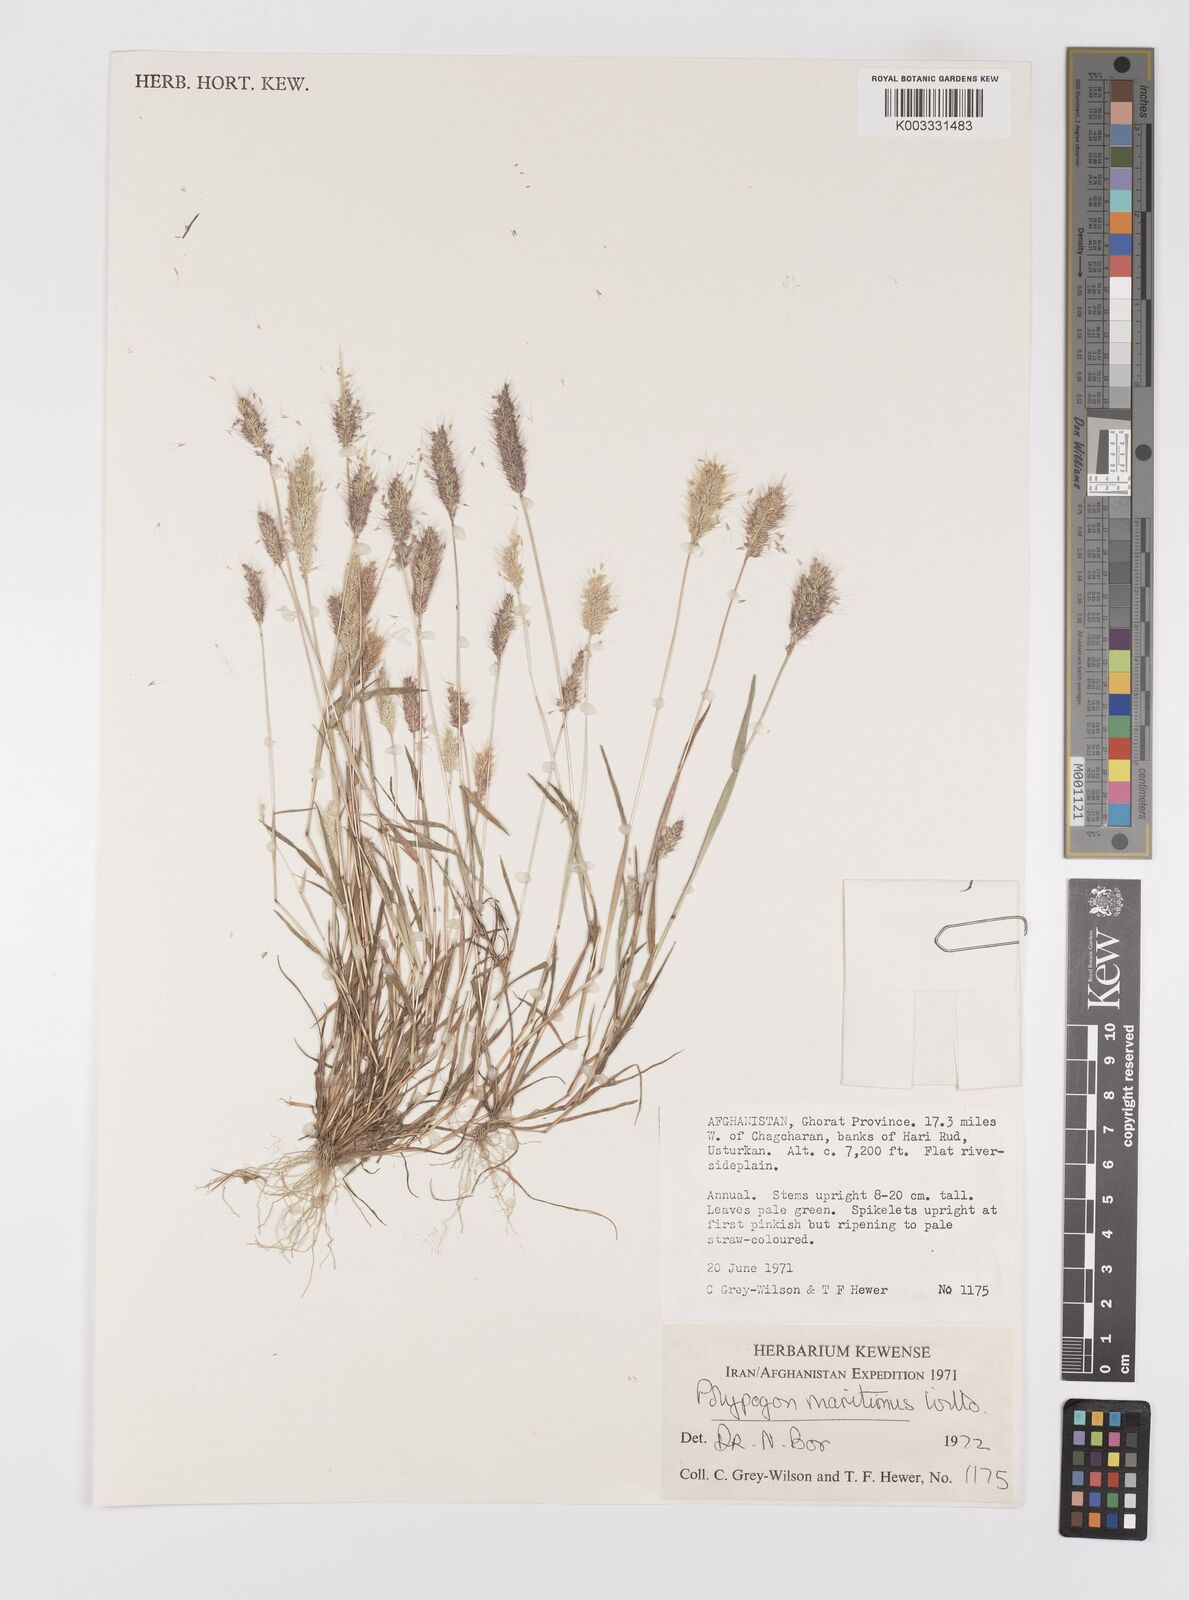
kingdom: Plantae
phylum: Tracheophyta
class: Liliopsida
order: Poales
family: Poaceae
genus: Polypogon
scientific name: Polypogon maritimus
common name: Mediterranean rabbitsfoot grass
